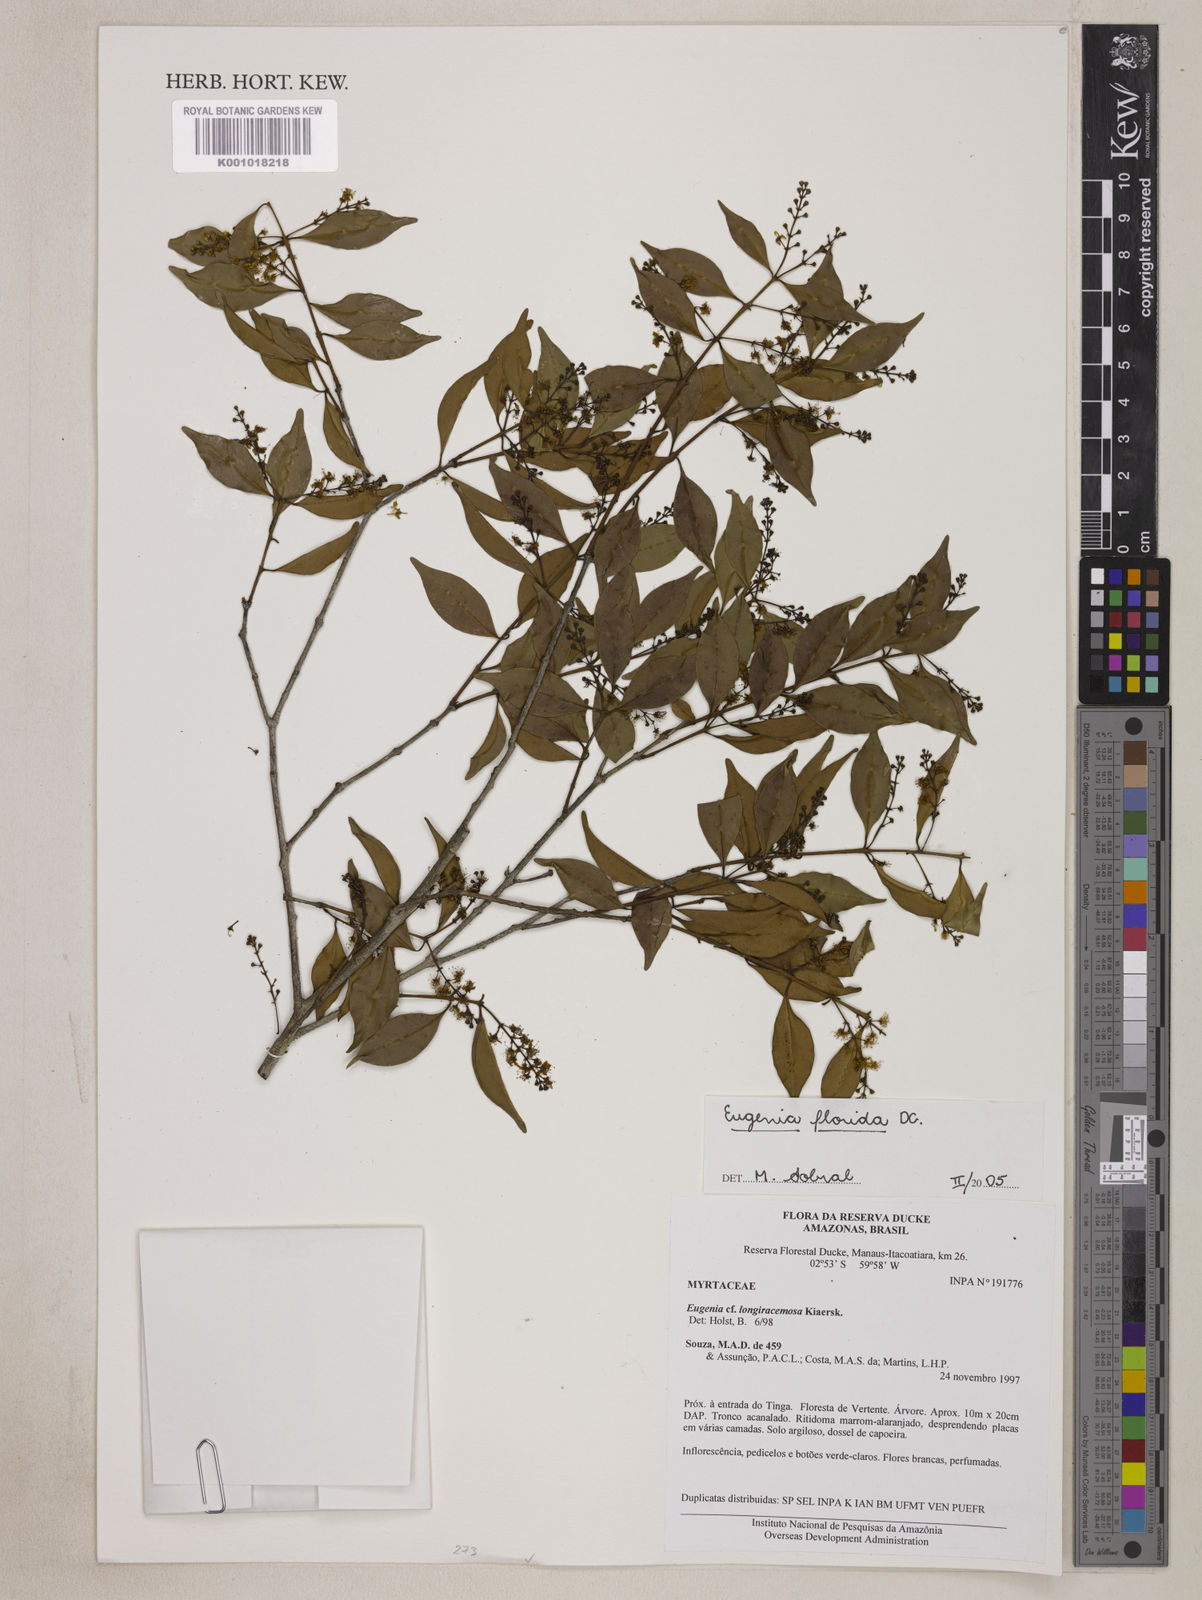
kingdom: Plantae
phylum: Tracheophyta
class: Magnoliopsida
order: Myrtales
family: Myrtaceae
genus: Eugenia
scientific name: Eugenia florida
